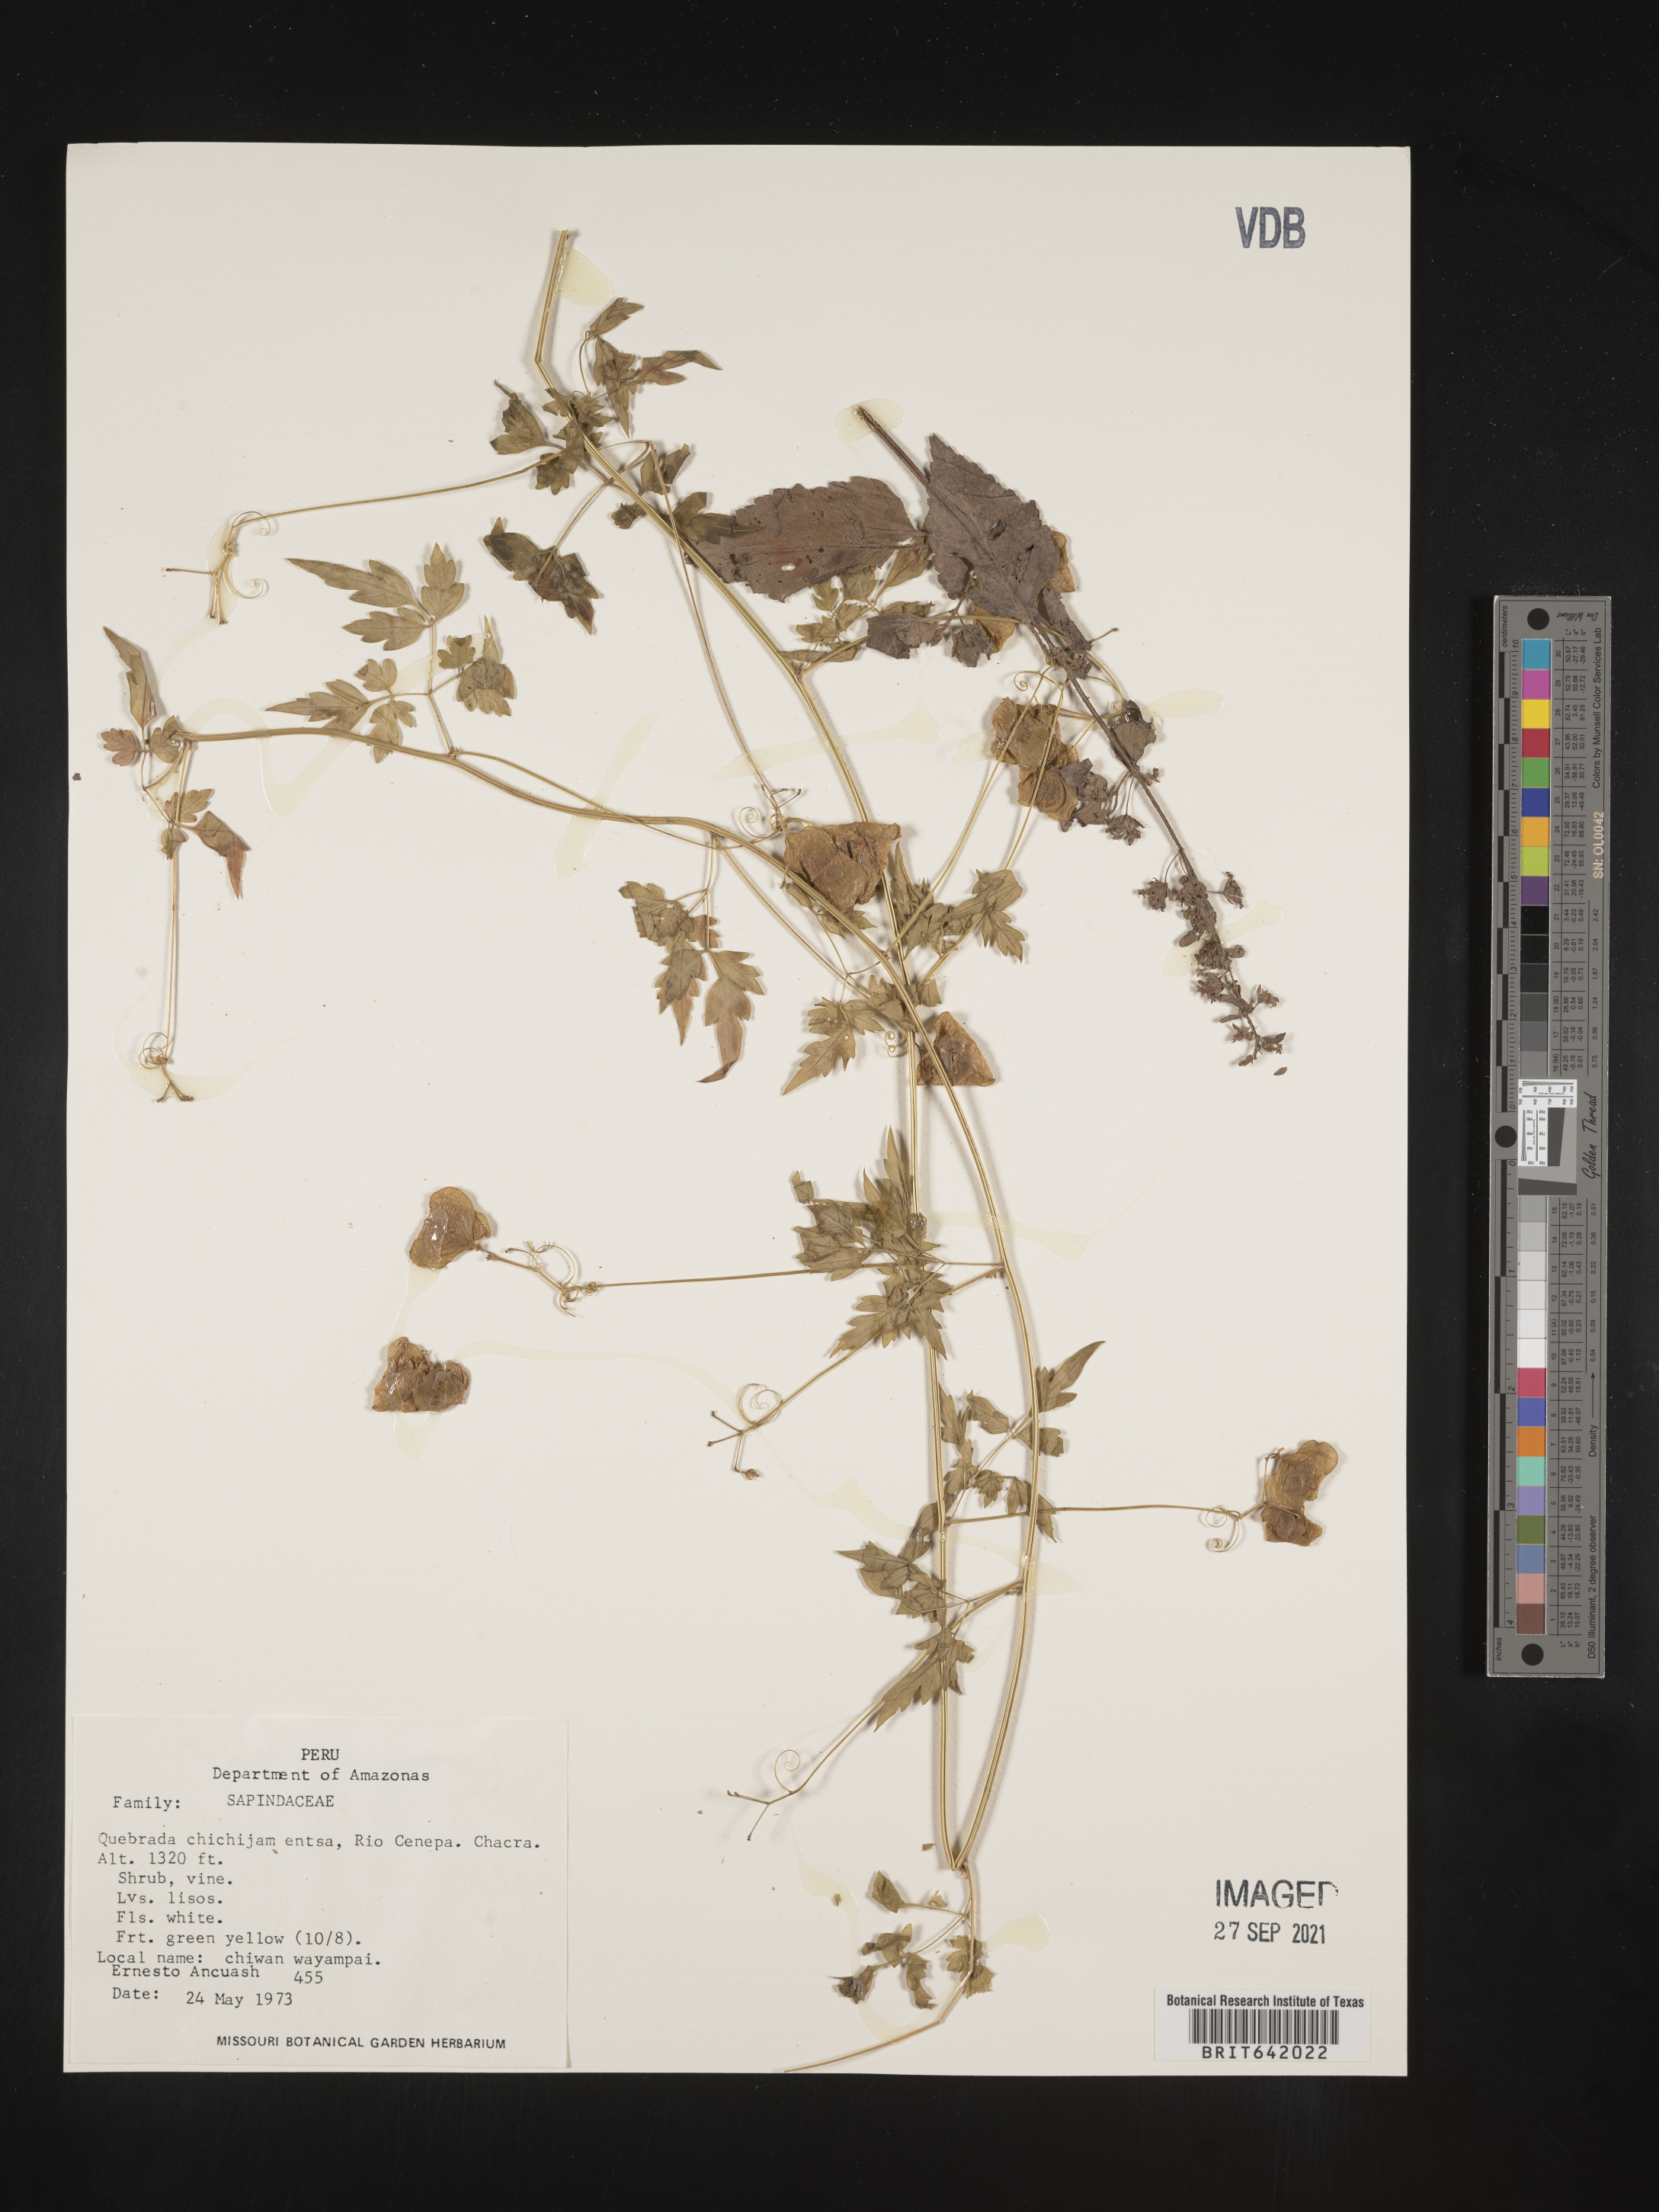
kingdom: Plantae
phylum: Tracheophyta
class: Magnoliopsida
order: Sapindales
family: Sapindaceae
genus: Cardiospermum
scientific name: Cardiospermum
